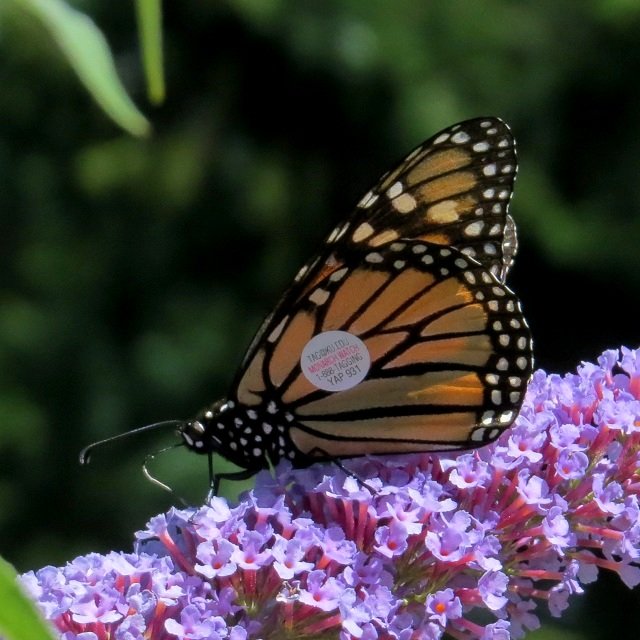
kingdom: Animalia
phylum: Arthropoda
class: Insecta
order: Lepidoptera
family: Nymphalidae
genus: Danaus
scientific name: Danaus plexippus
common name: Monarch
